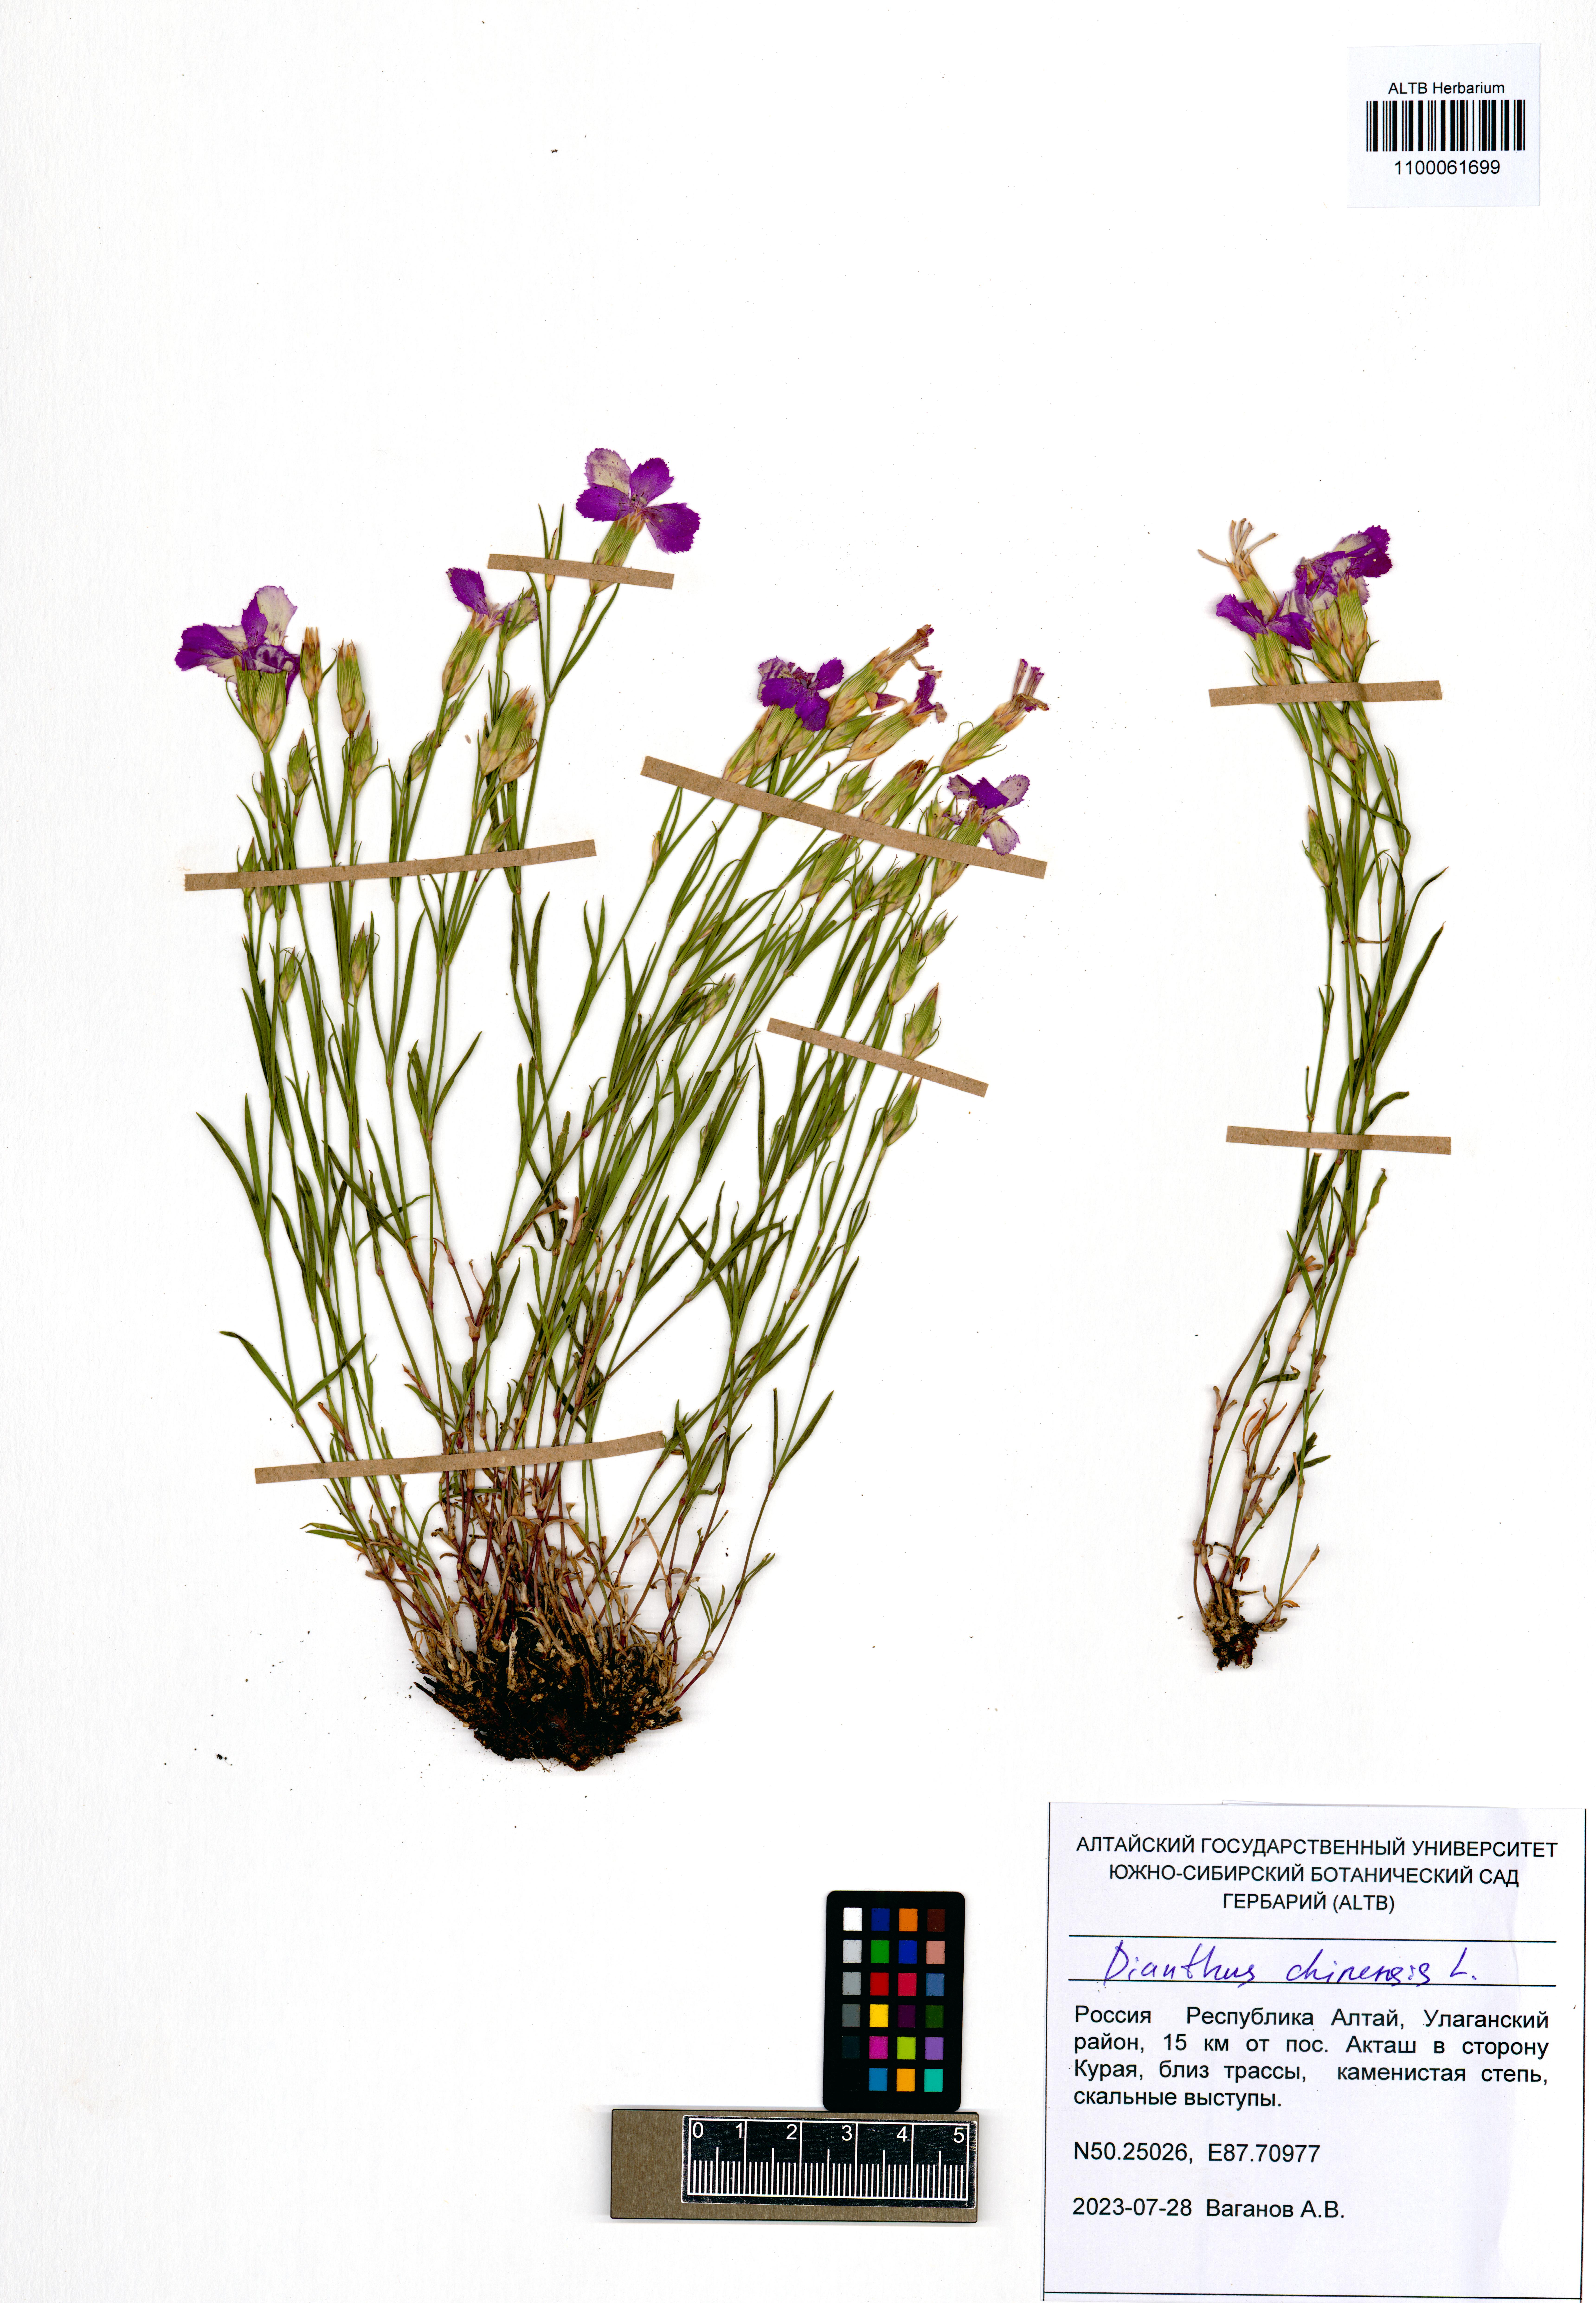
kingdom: Plantae
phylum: Tracheophyta
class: Magnoliopsida
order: Caryophyllales
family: Caryophyllaceae
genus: Dianthus
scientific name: Dianthus chinensis
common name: Rainbow pink
